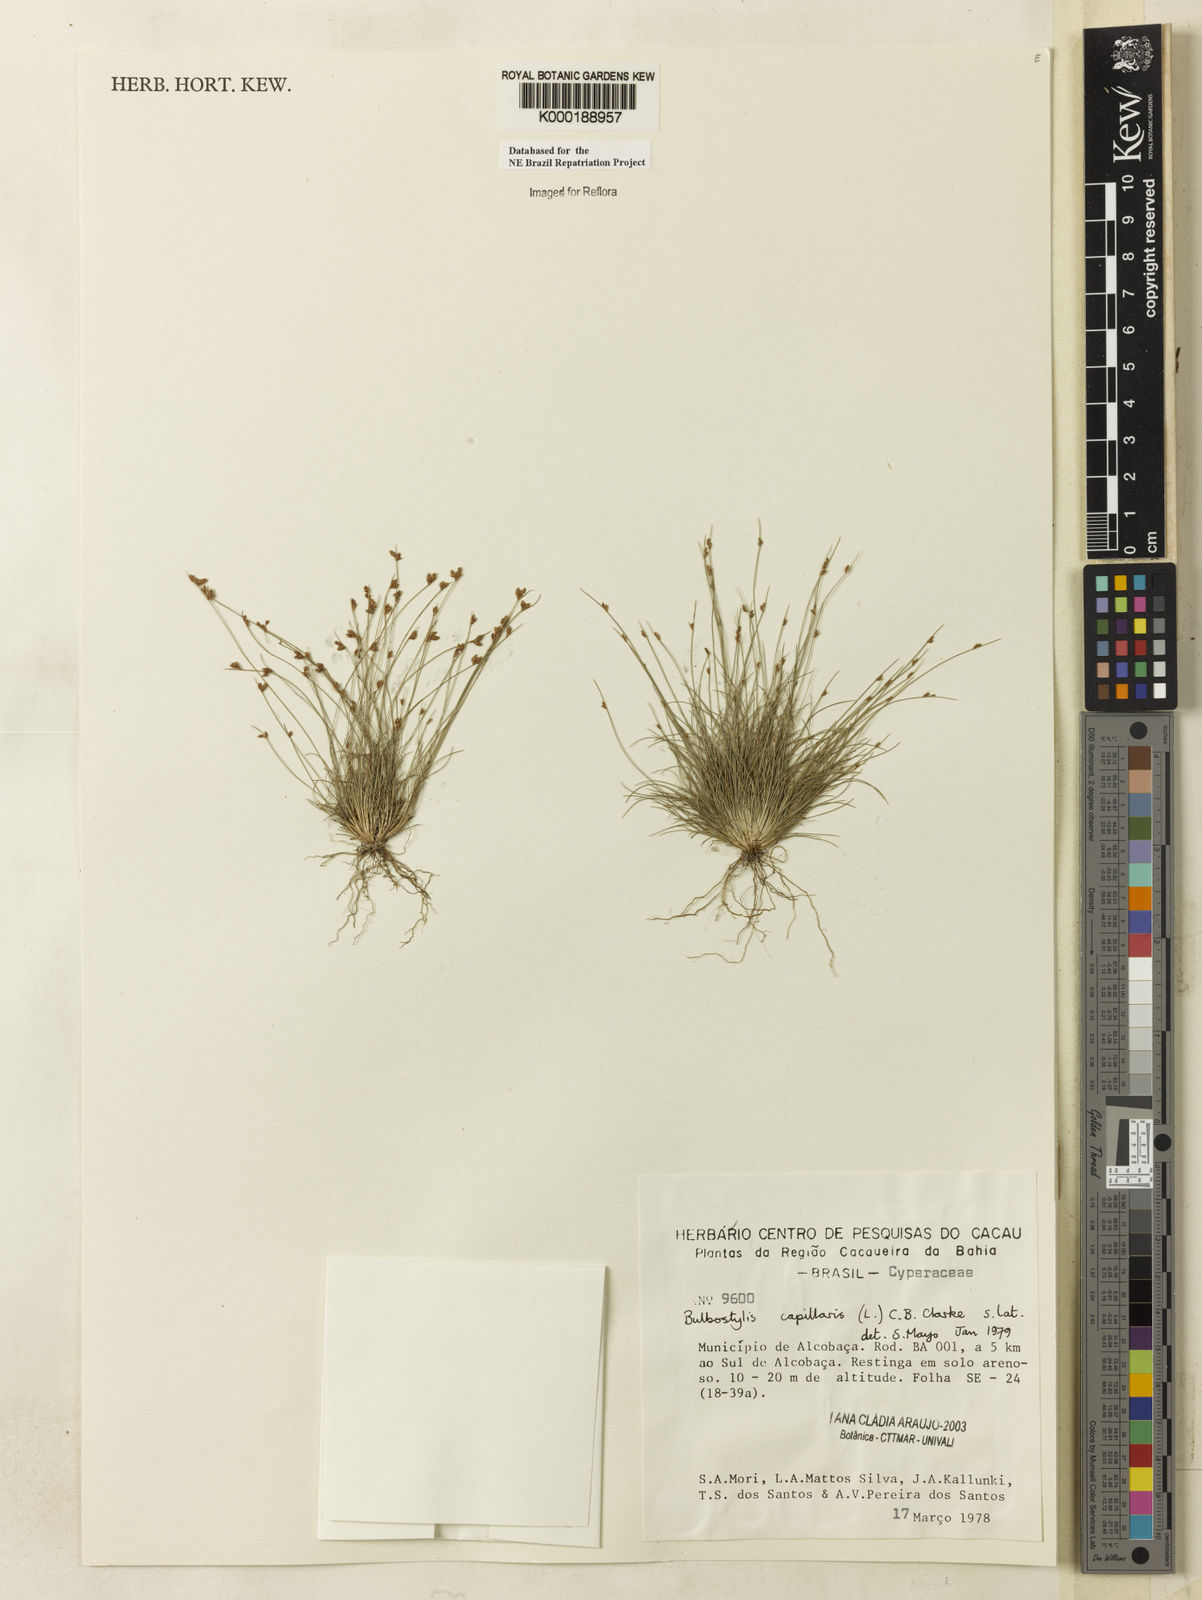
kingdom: Plantae
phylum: Tracheophyta
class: Liliopsida
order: Poales
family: Cyperaceae
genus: Bulbostylis
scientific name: Bulbostylis capillaris
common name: Densetuft hairsedge
